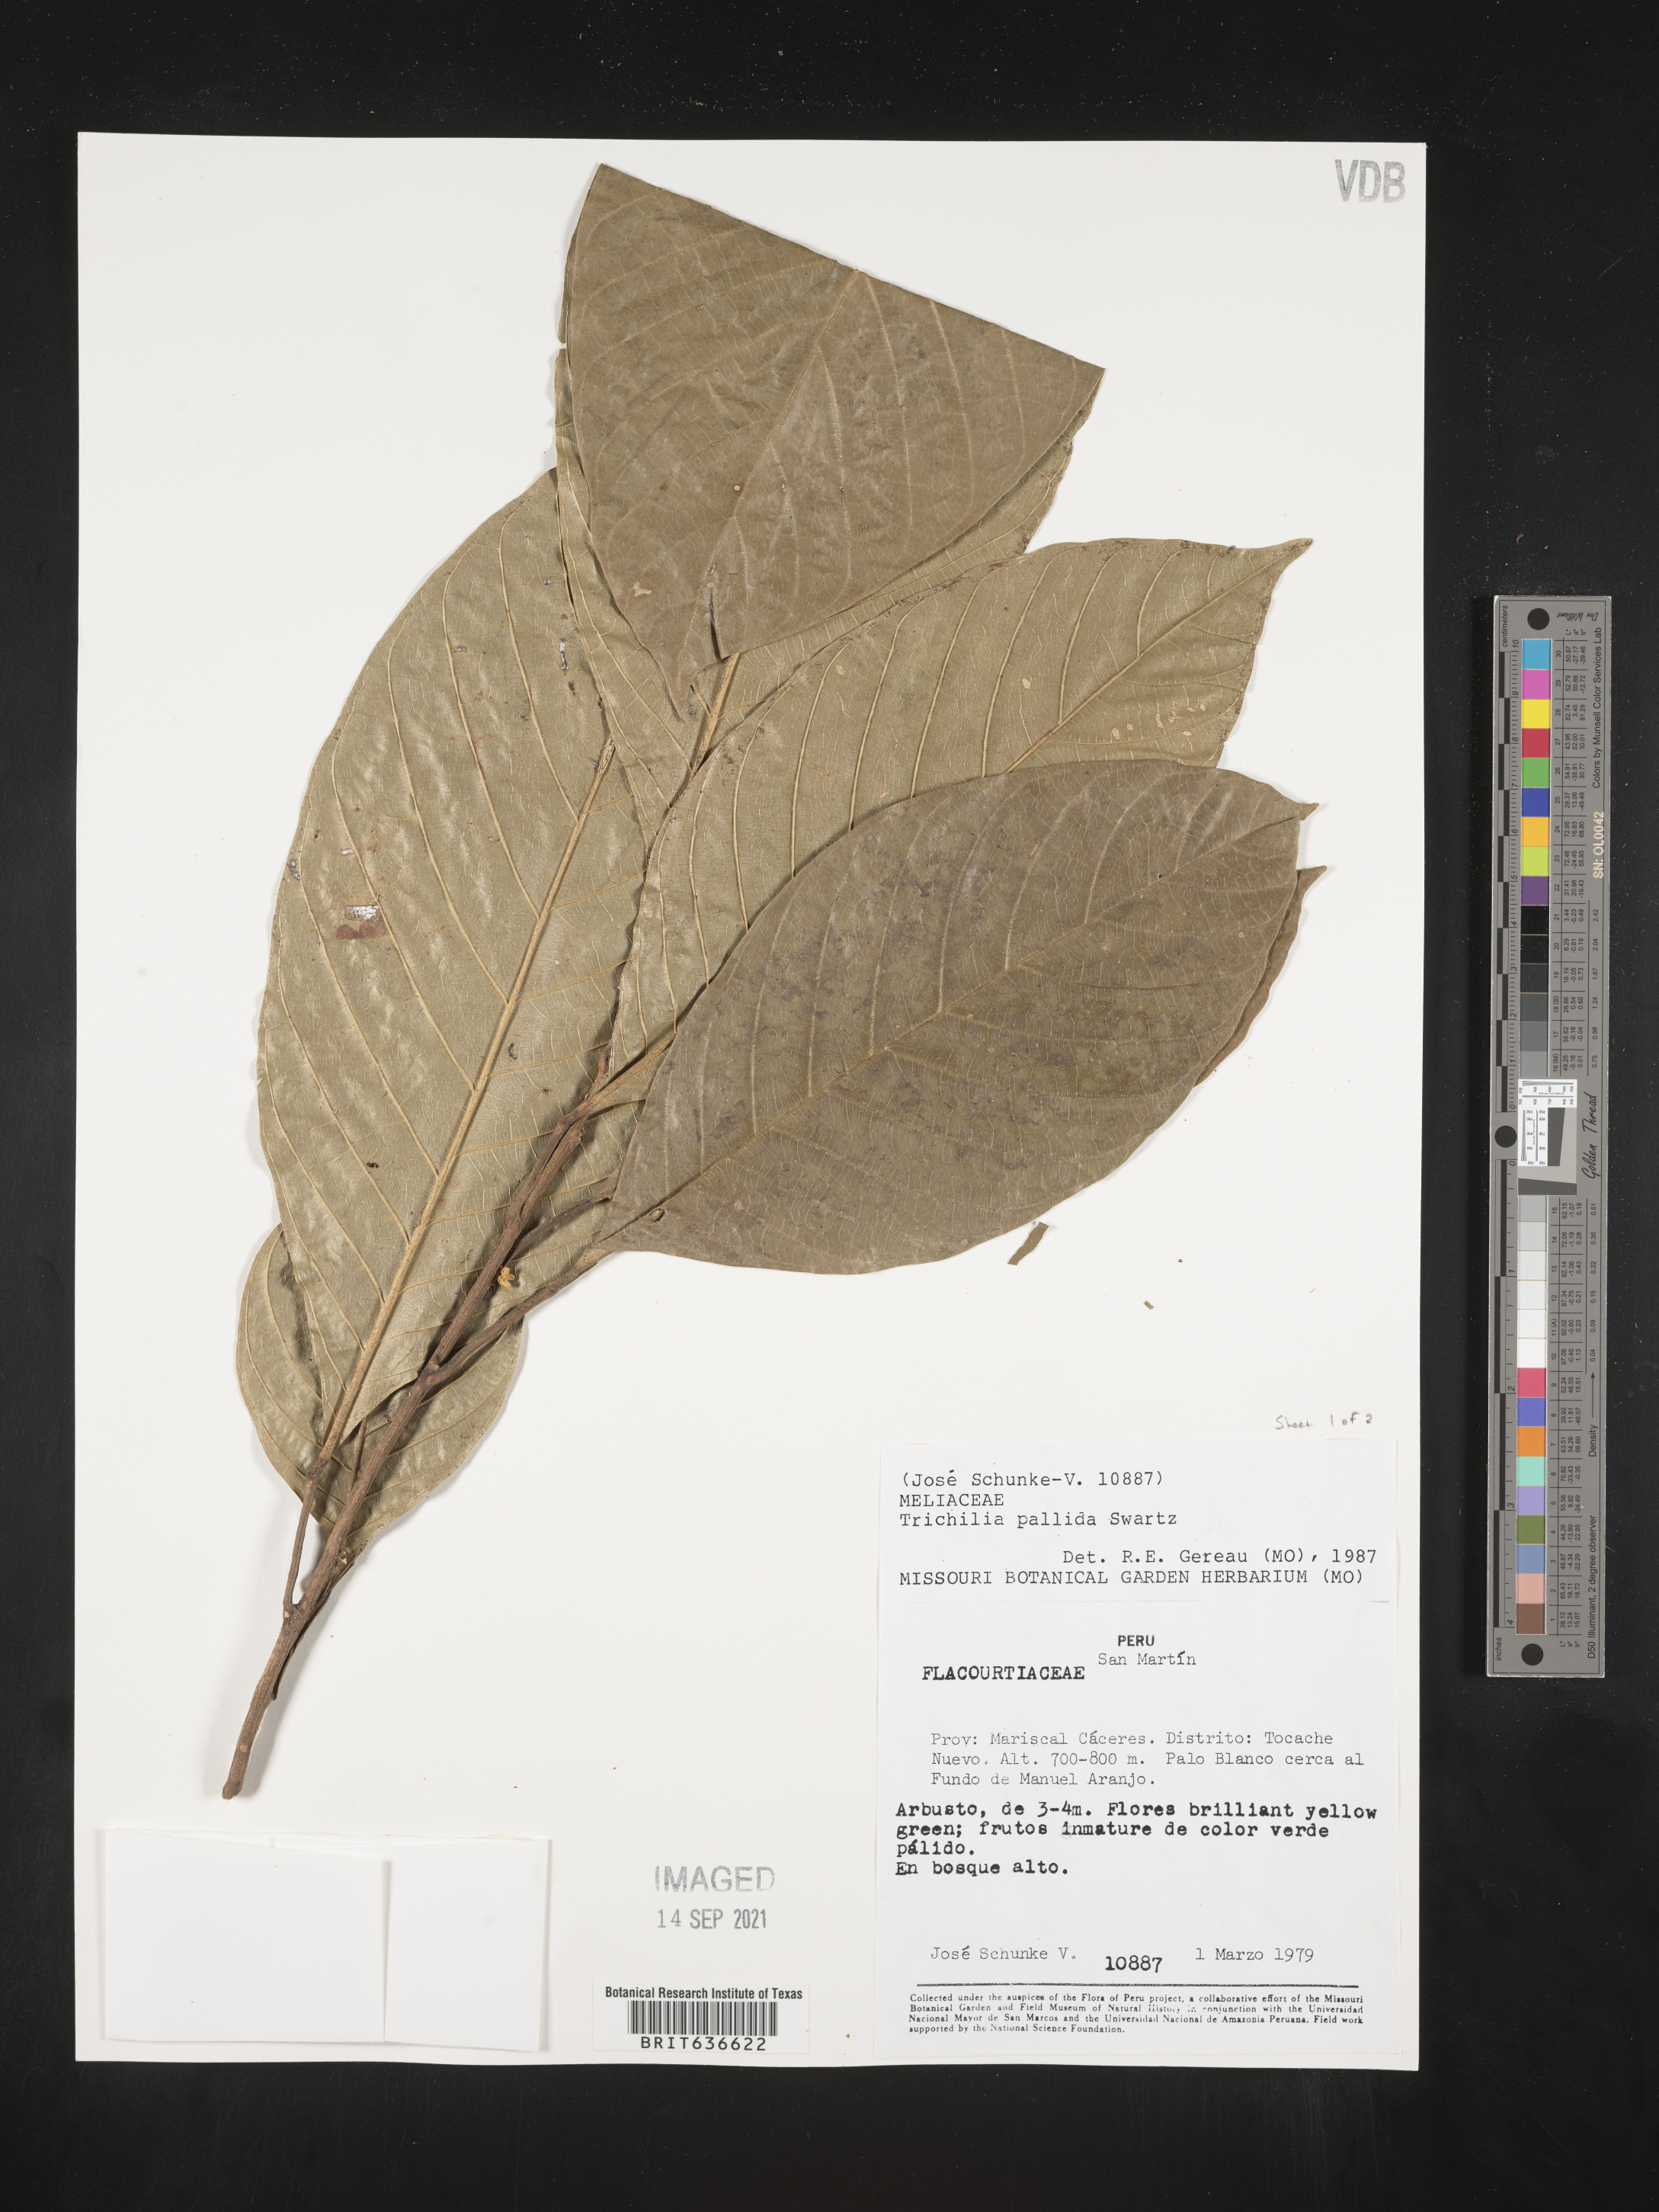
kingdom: Plantae
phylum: Tracheophyta
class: Magnoliopsida
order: Sapindales
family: Meliaceae
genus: Trichilia
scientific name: Trichilia
